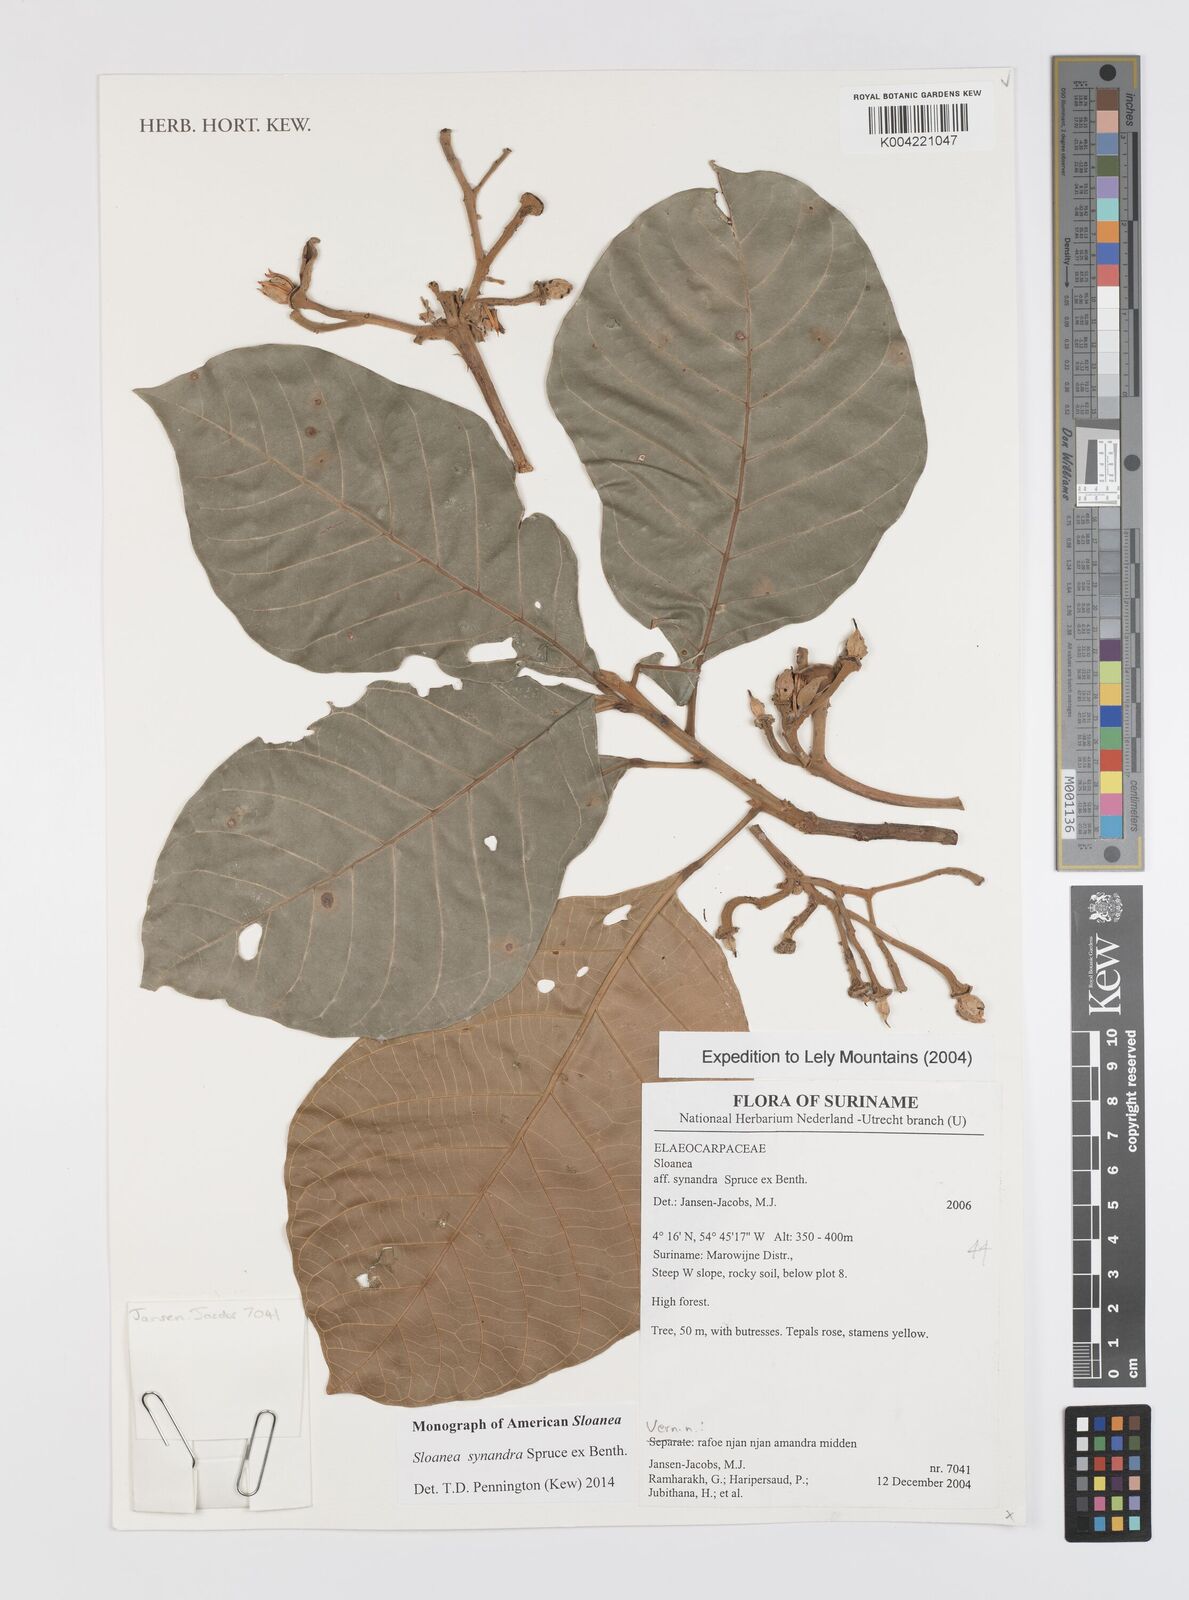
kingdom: Plantae
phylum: Tracheophyta
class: Magnoliopsida
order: Oxalidales
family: Elaeocarpaceae
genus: Sloanea
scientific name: Sloanea synandra
